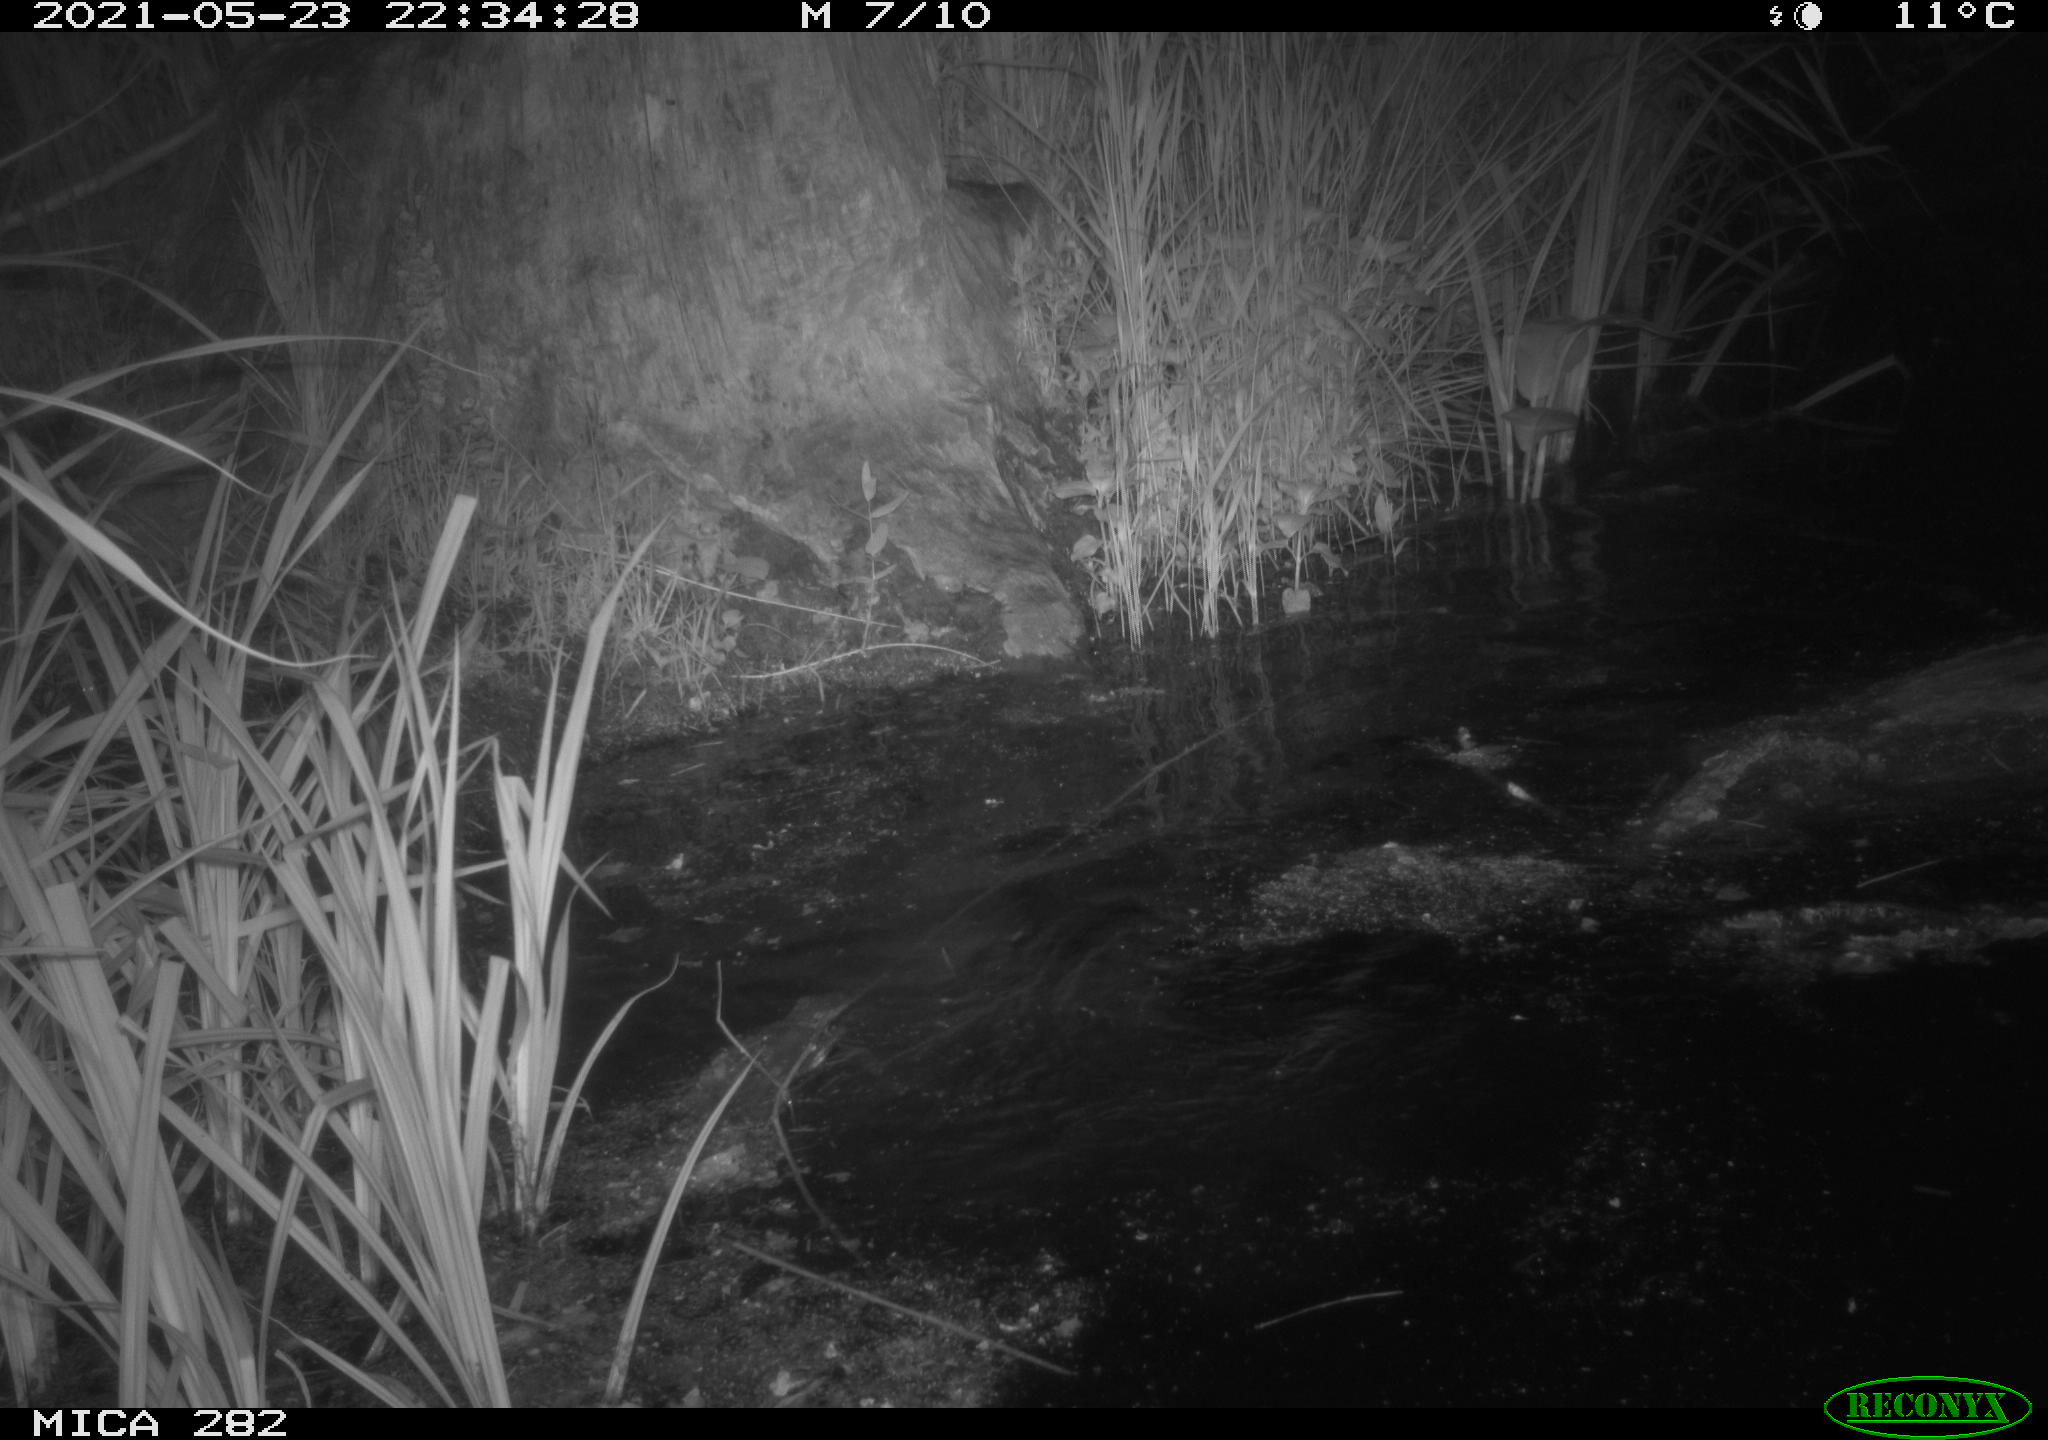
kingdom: Animalia
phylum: Chordata
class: Mammalia
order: Rodentia
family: Castoridae
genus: Castor
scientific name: Castor fiber
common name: Eurasian beaver
